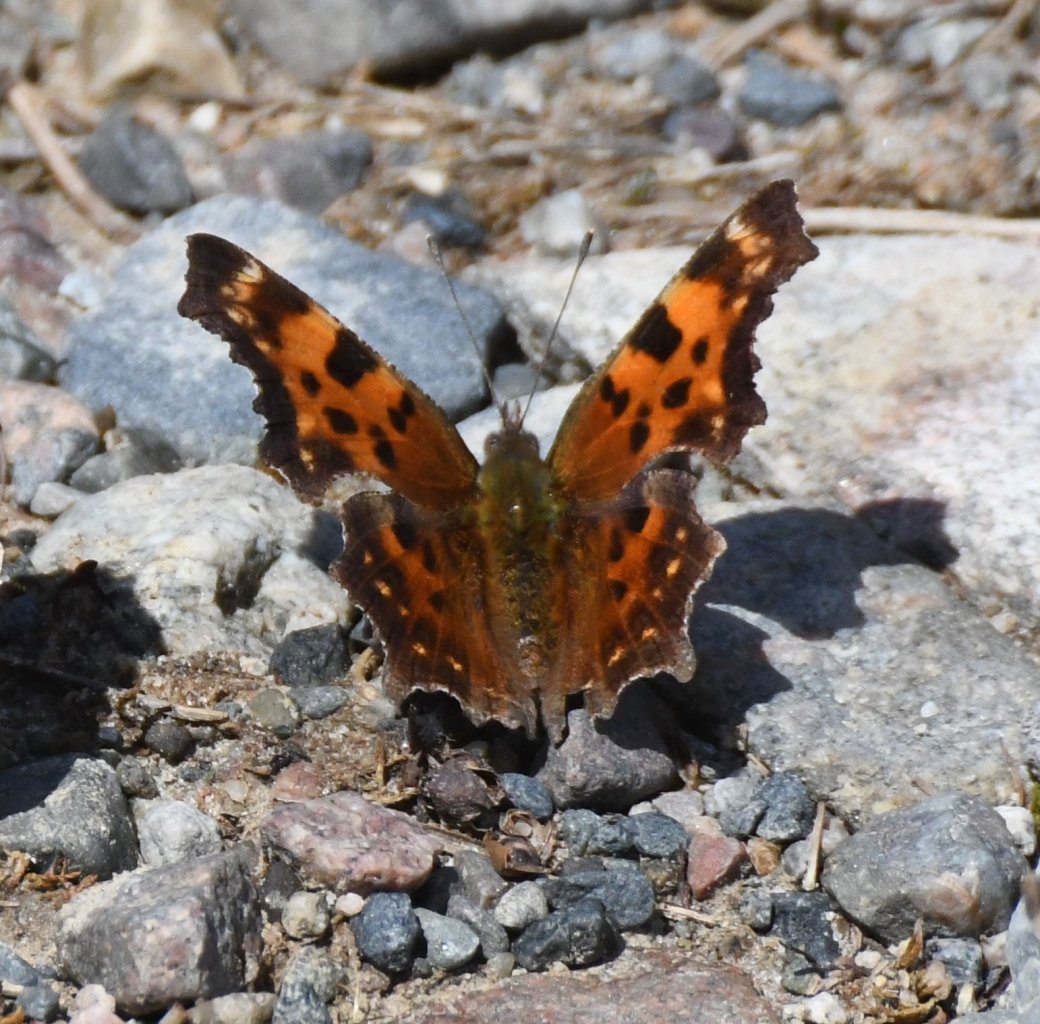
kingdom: Animalia
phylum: Arthropoda
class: Insecta
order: Lepidoptera
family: Nymphalidae
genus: Polygonia
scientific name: Polygonia faunus
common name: Green Comma
